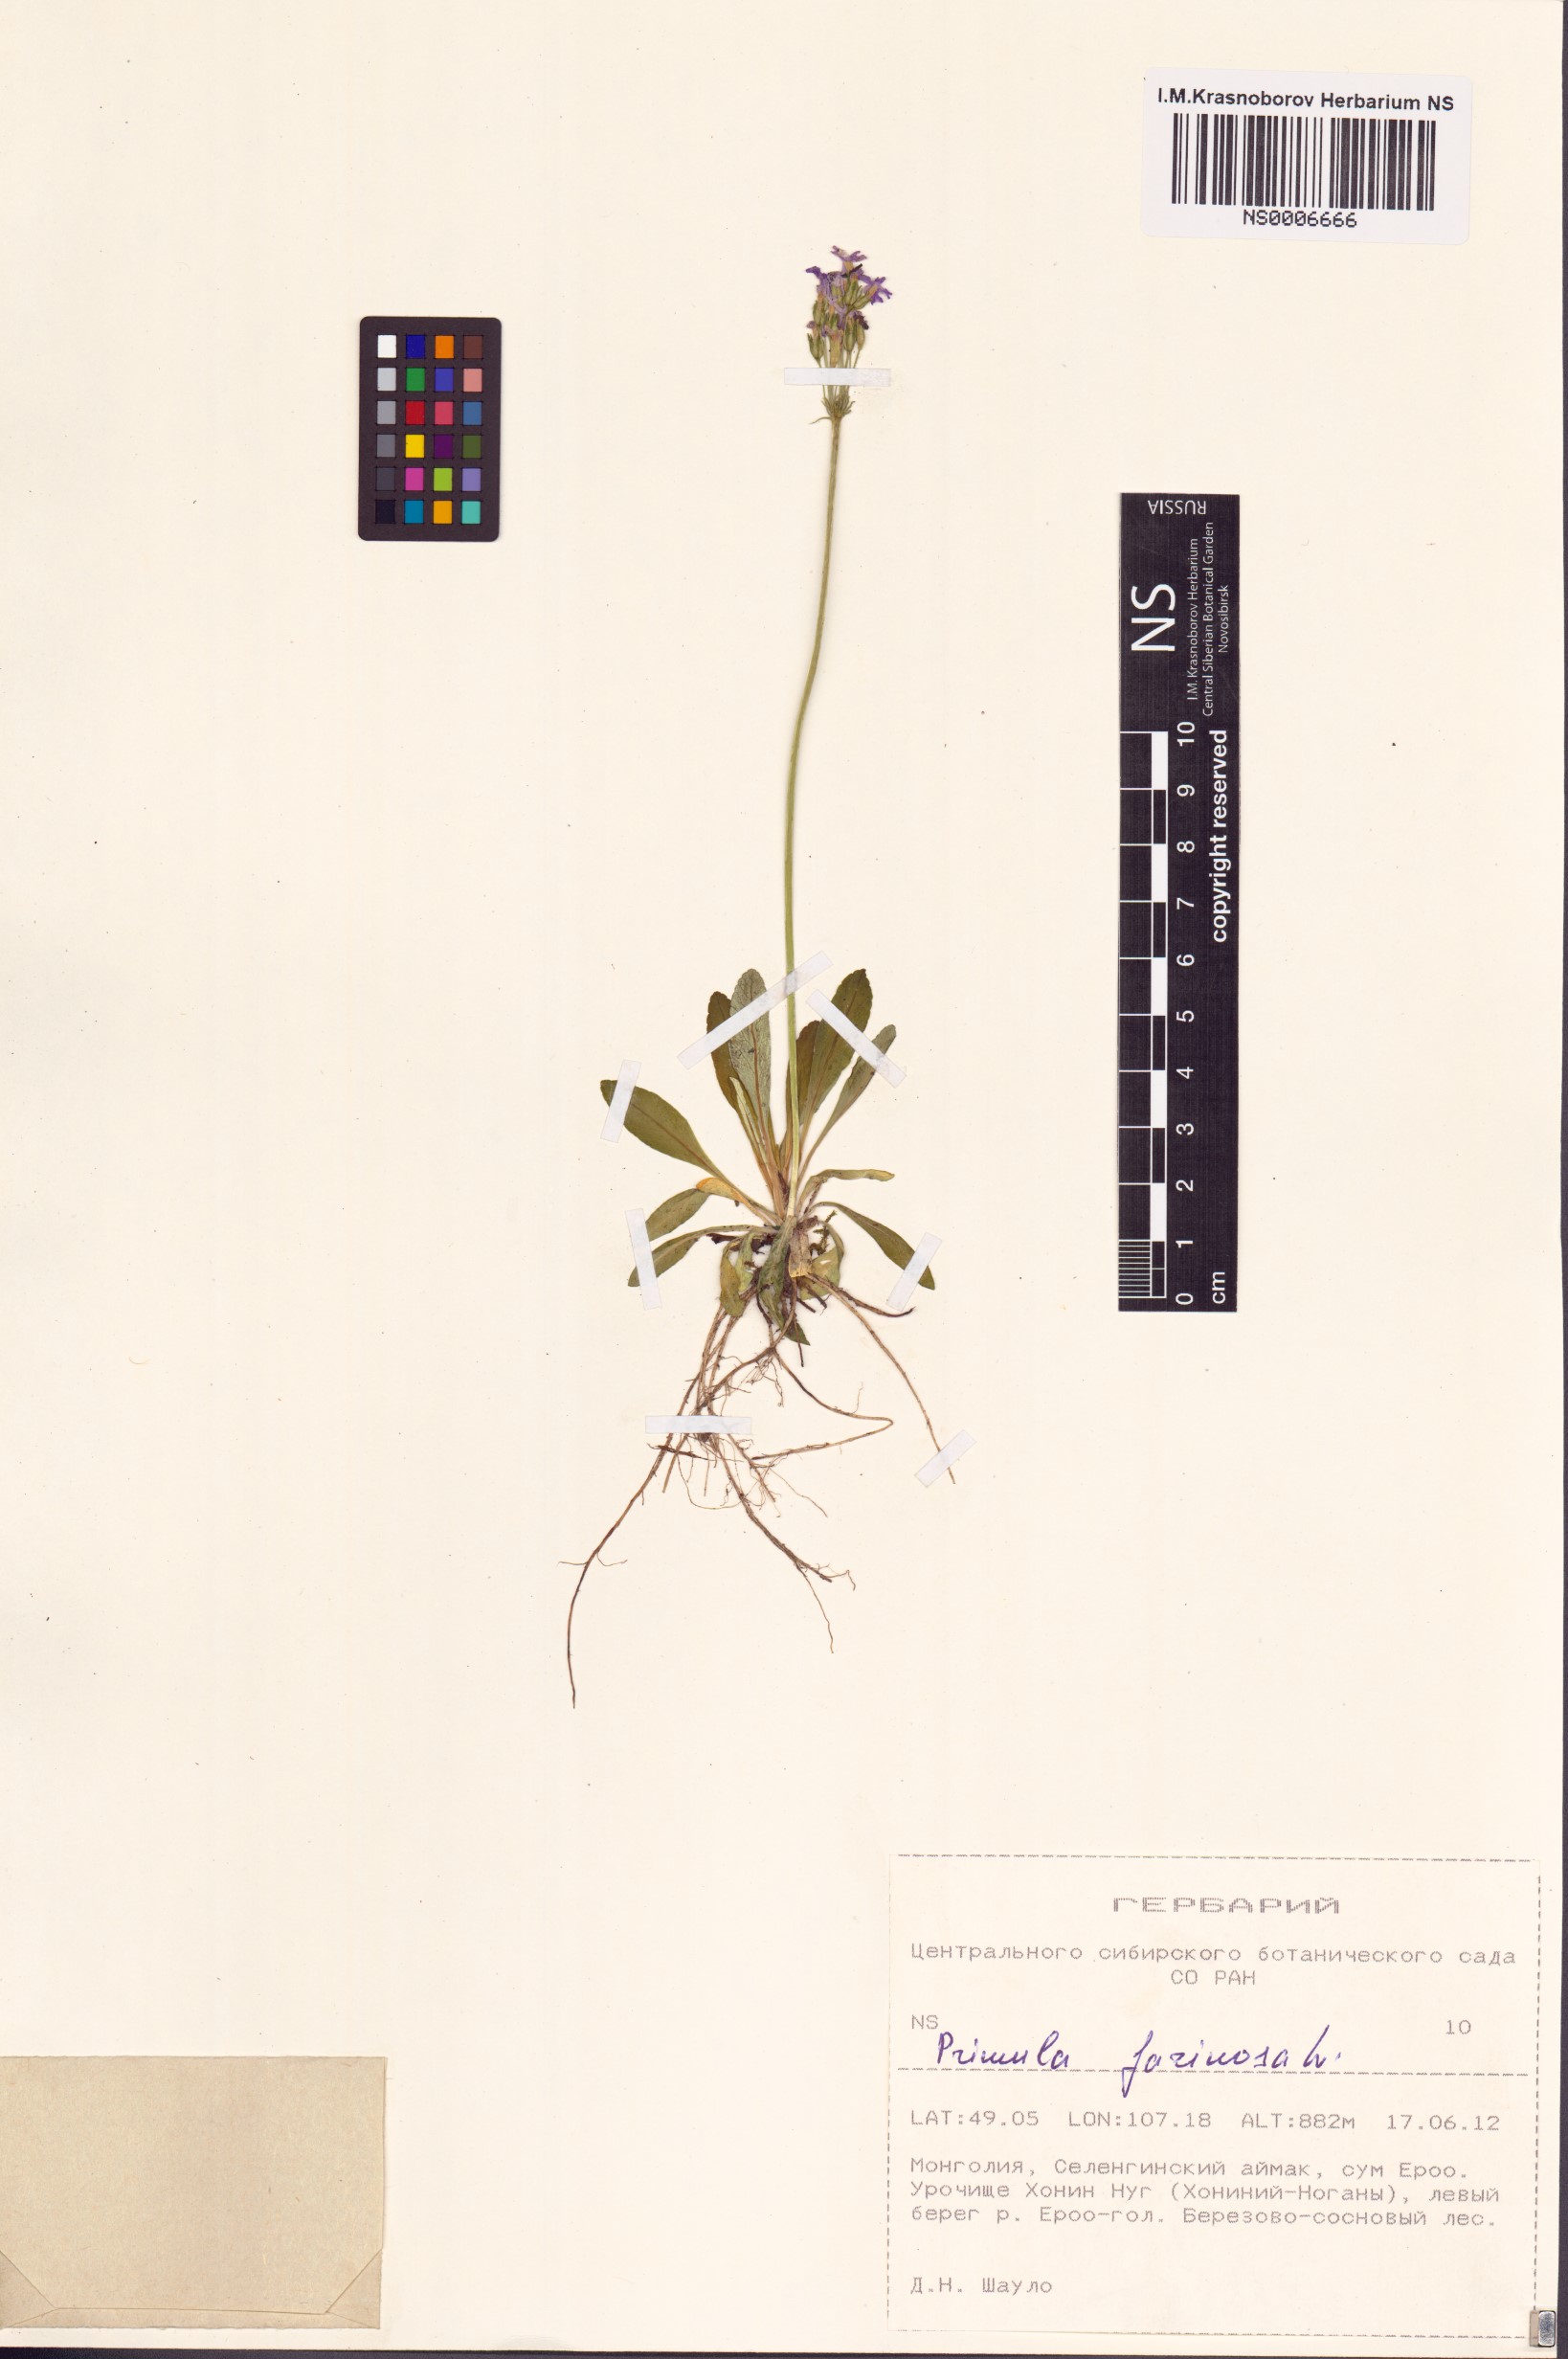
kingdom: Plantae
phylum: Tracheophyta
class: Magnoliopsida
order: Ericales
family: Primulaceae
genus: Primula
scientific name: Primula farinosa
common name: Bird's-eye primrose
